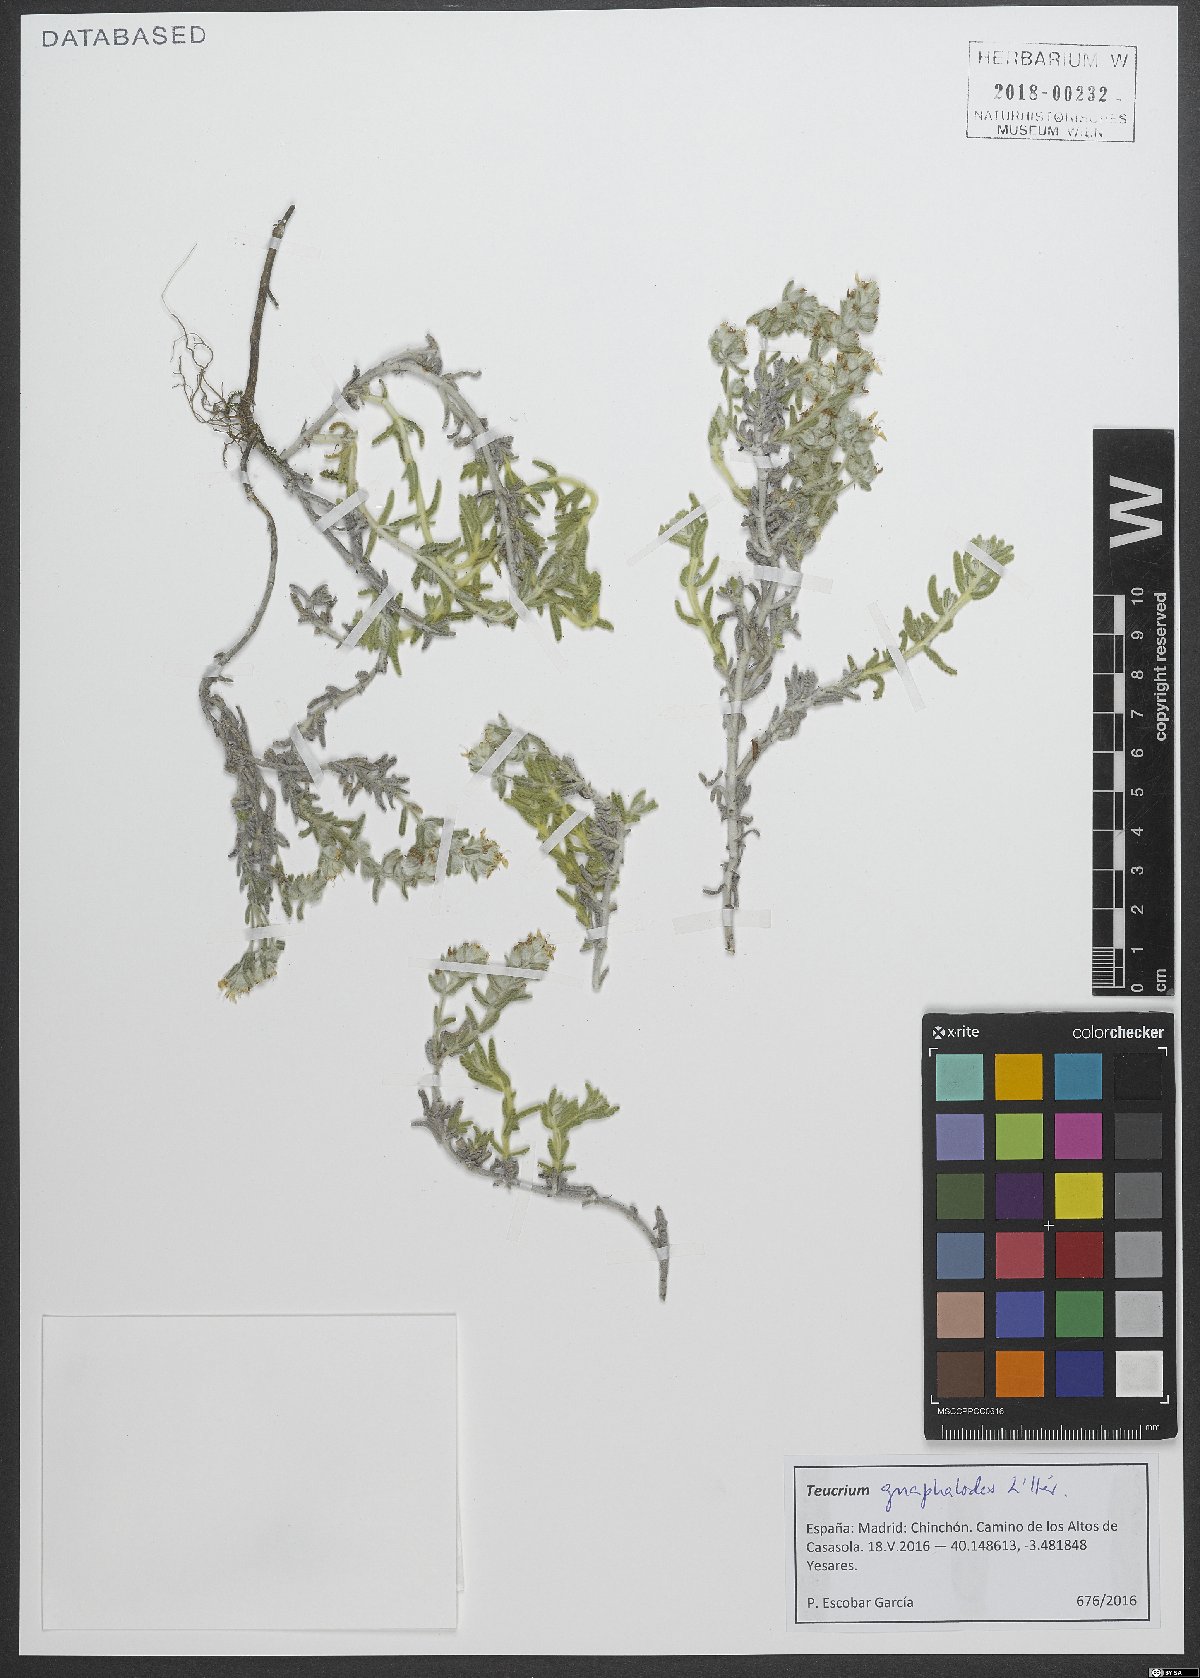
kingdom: Plantae
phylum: Tracheophyta
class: Magnoliopsida
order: Lamiales
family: Lamiaceae
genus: Teucrium
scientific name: Teucrium gnaphalodes
